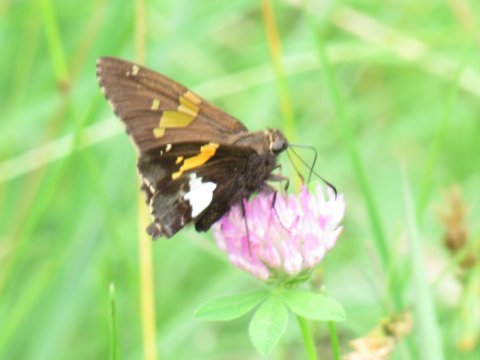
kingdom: Animalia
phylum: Arthropoda
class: Insecta
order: Lepidoptera
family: Hesperiidae
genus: Epargyreus
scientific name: Epargyreus clarus
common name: Silver-spotted Skipper
